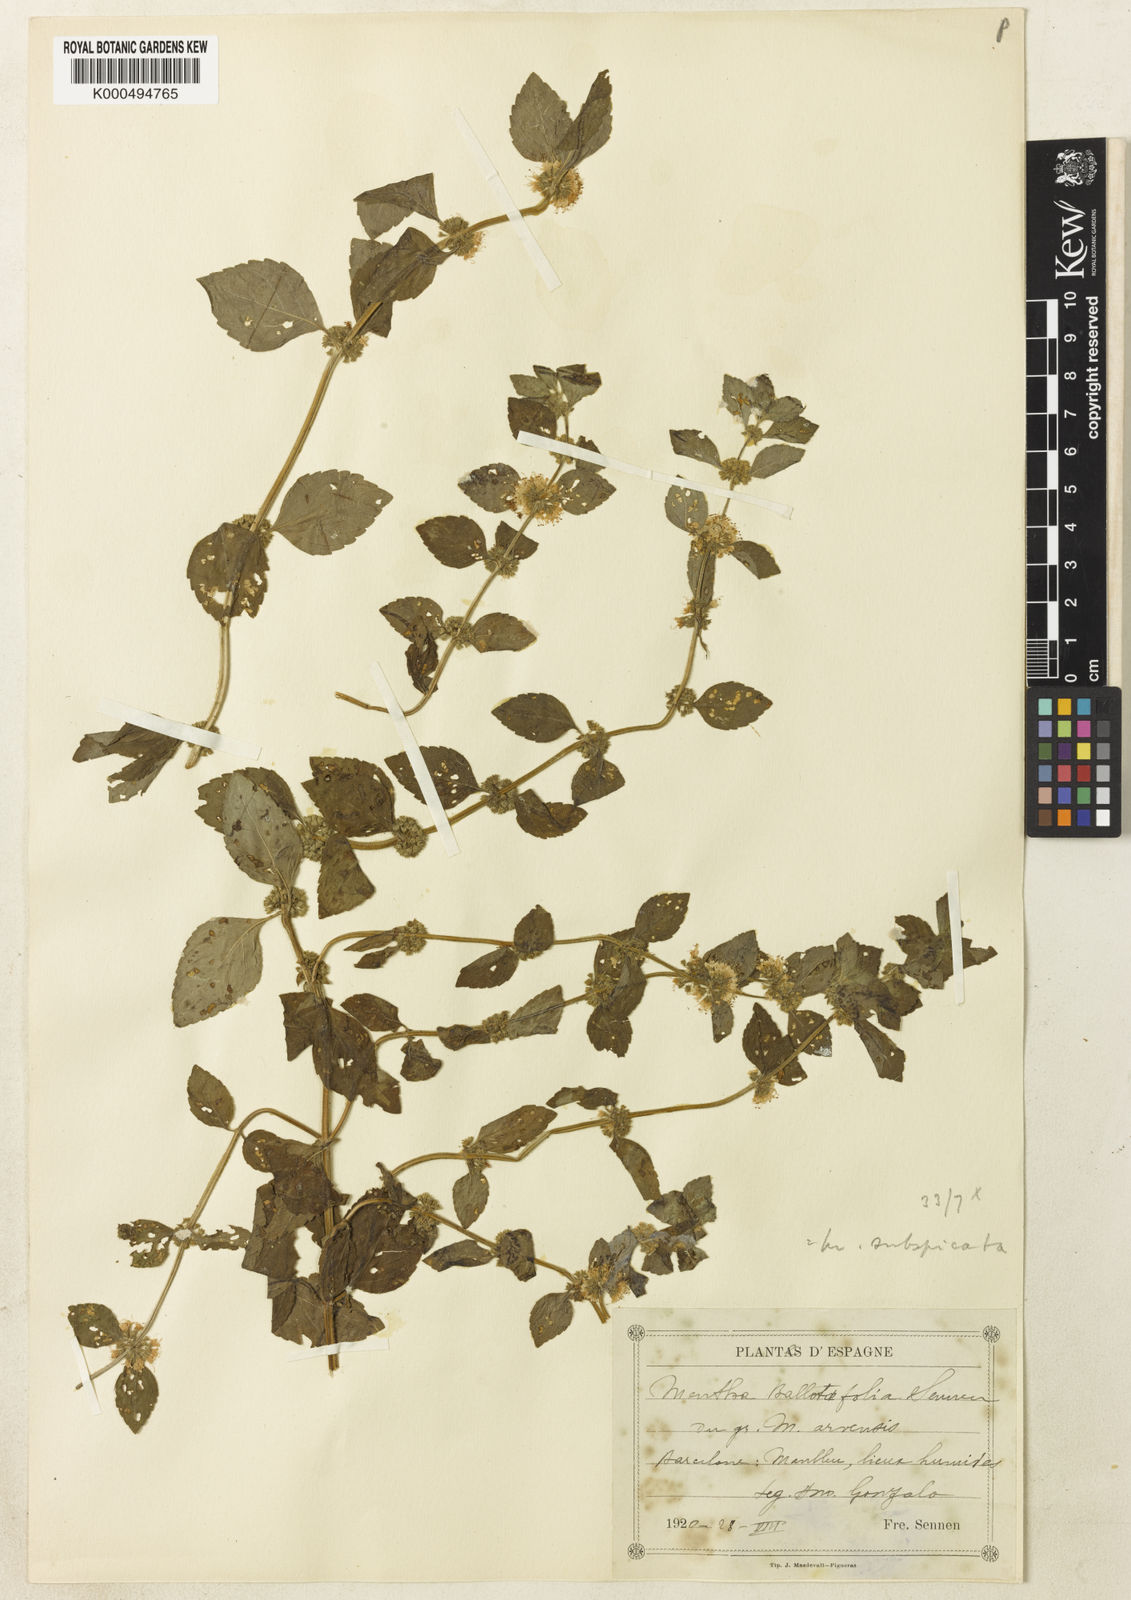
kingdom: Plantae
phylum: Tracheophyta
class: Magnoliopsida
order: Lamiales
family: Lamiaceae
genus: Mentha
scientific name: Mentha carinthiaca
